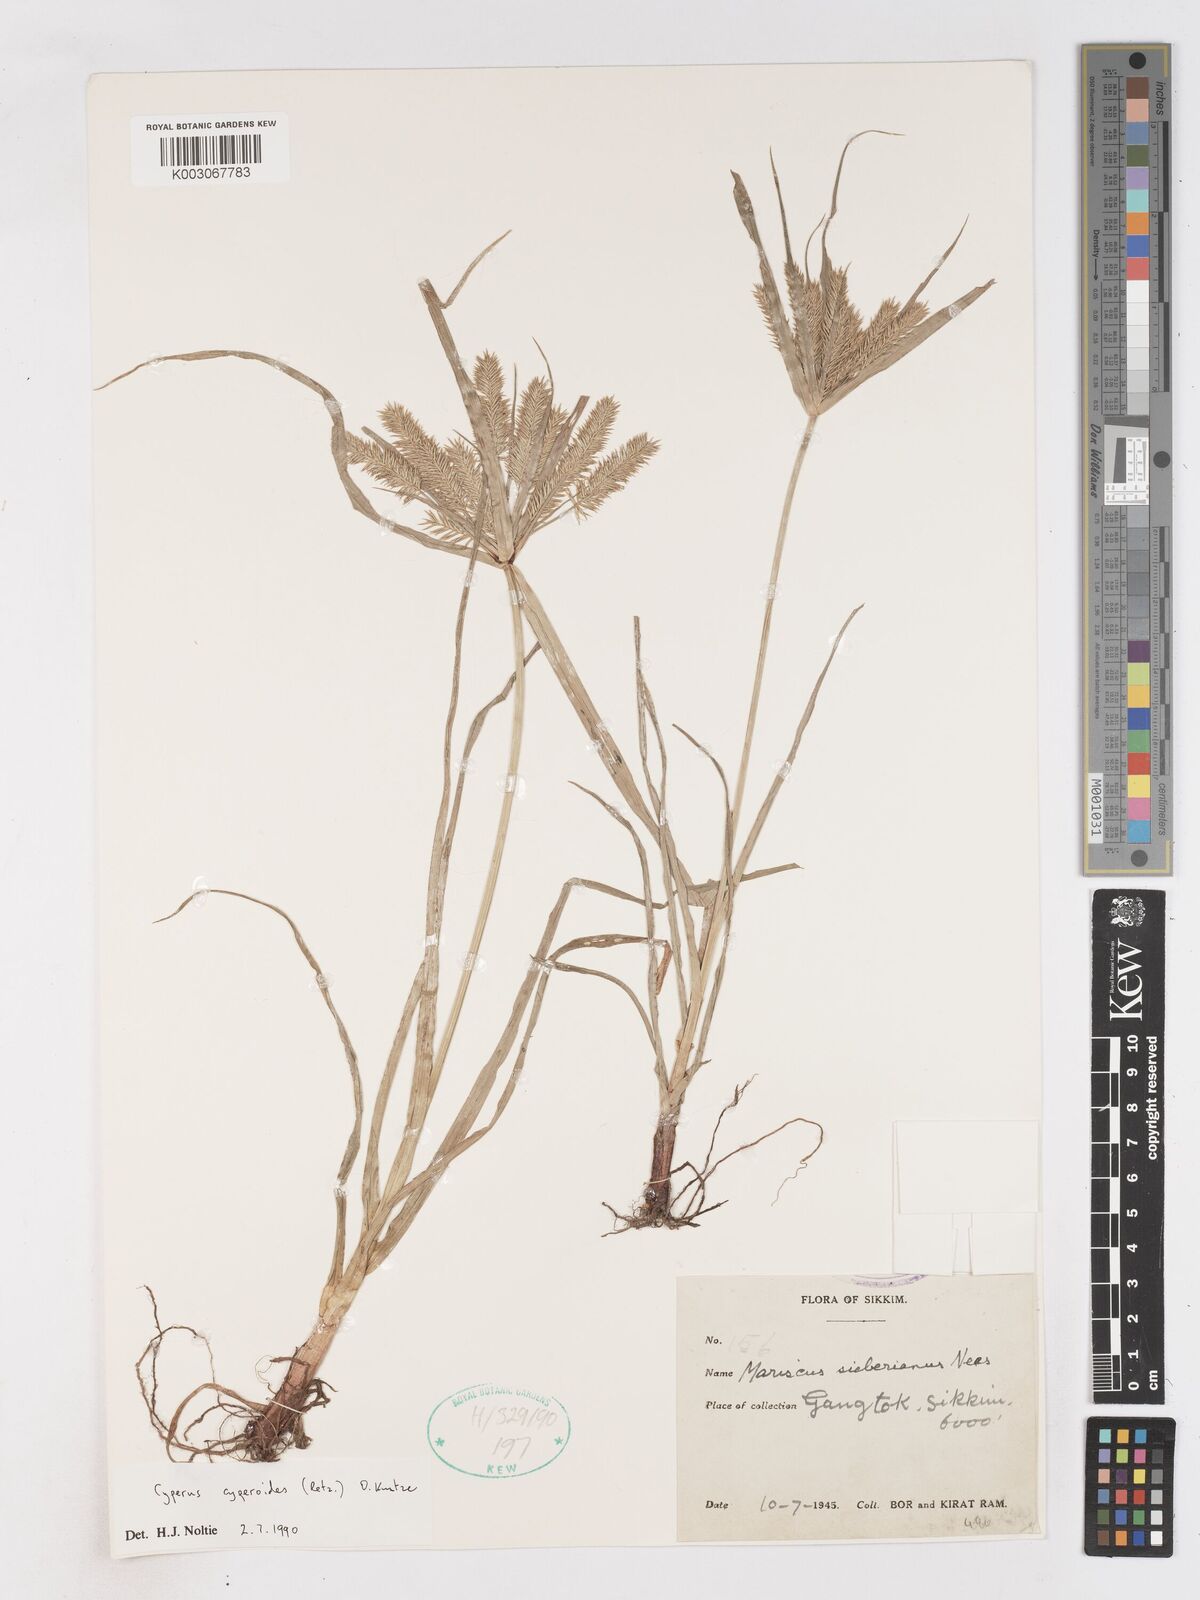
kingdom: Plantae
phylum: Tracheophyta
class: Liliopsida
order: Poales
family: Cyperaceae
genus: Cyperus
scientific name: Cyperus cyperoides
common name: Pacific island flat sedge
